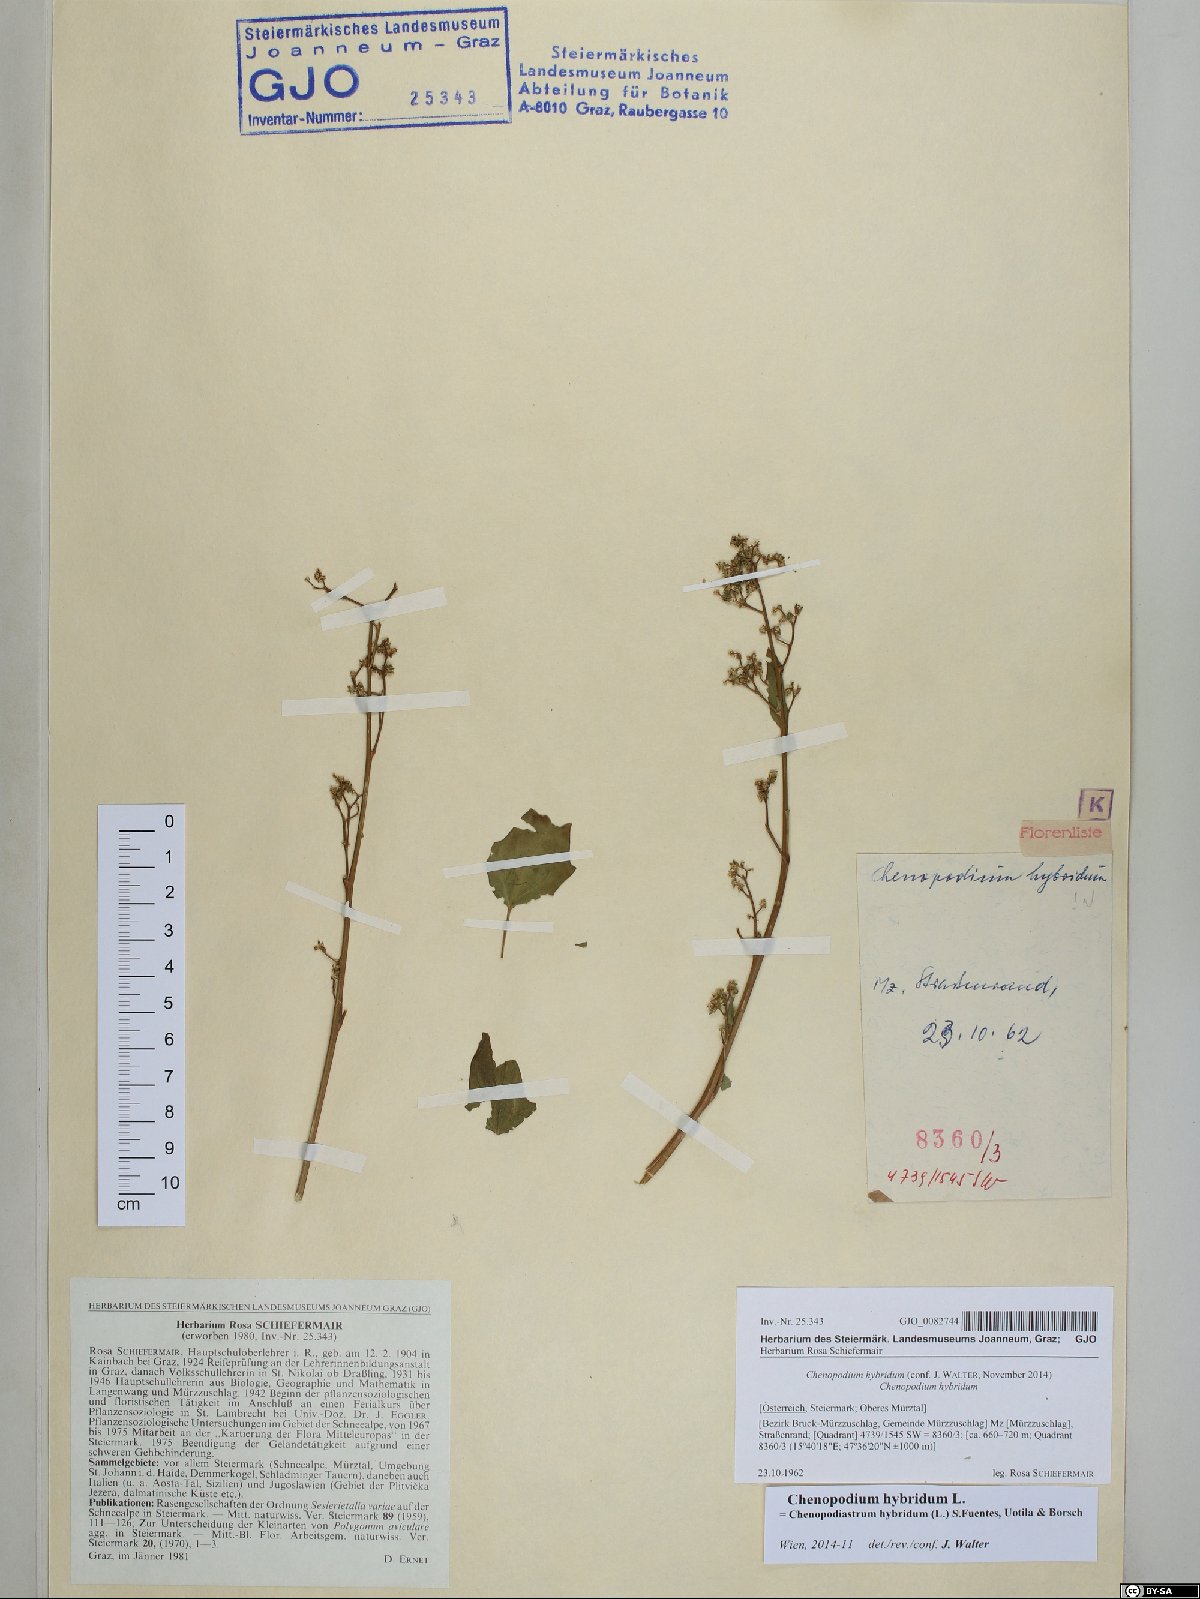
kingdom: Plantae
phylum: Tracheophyta
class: Magnoliopsida
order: Caryophyllales
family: Amaranthaceae
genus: Chenopodiastrum
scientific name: Chenopodiastrum hybridum
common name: Mapleleaf goosefoot
